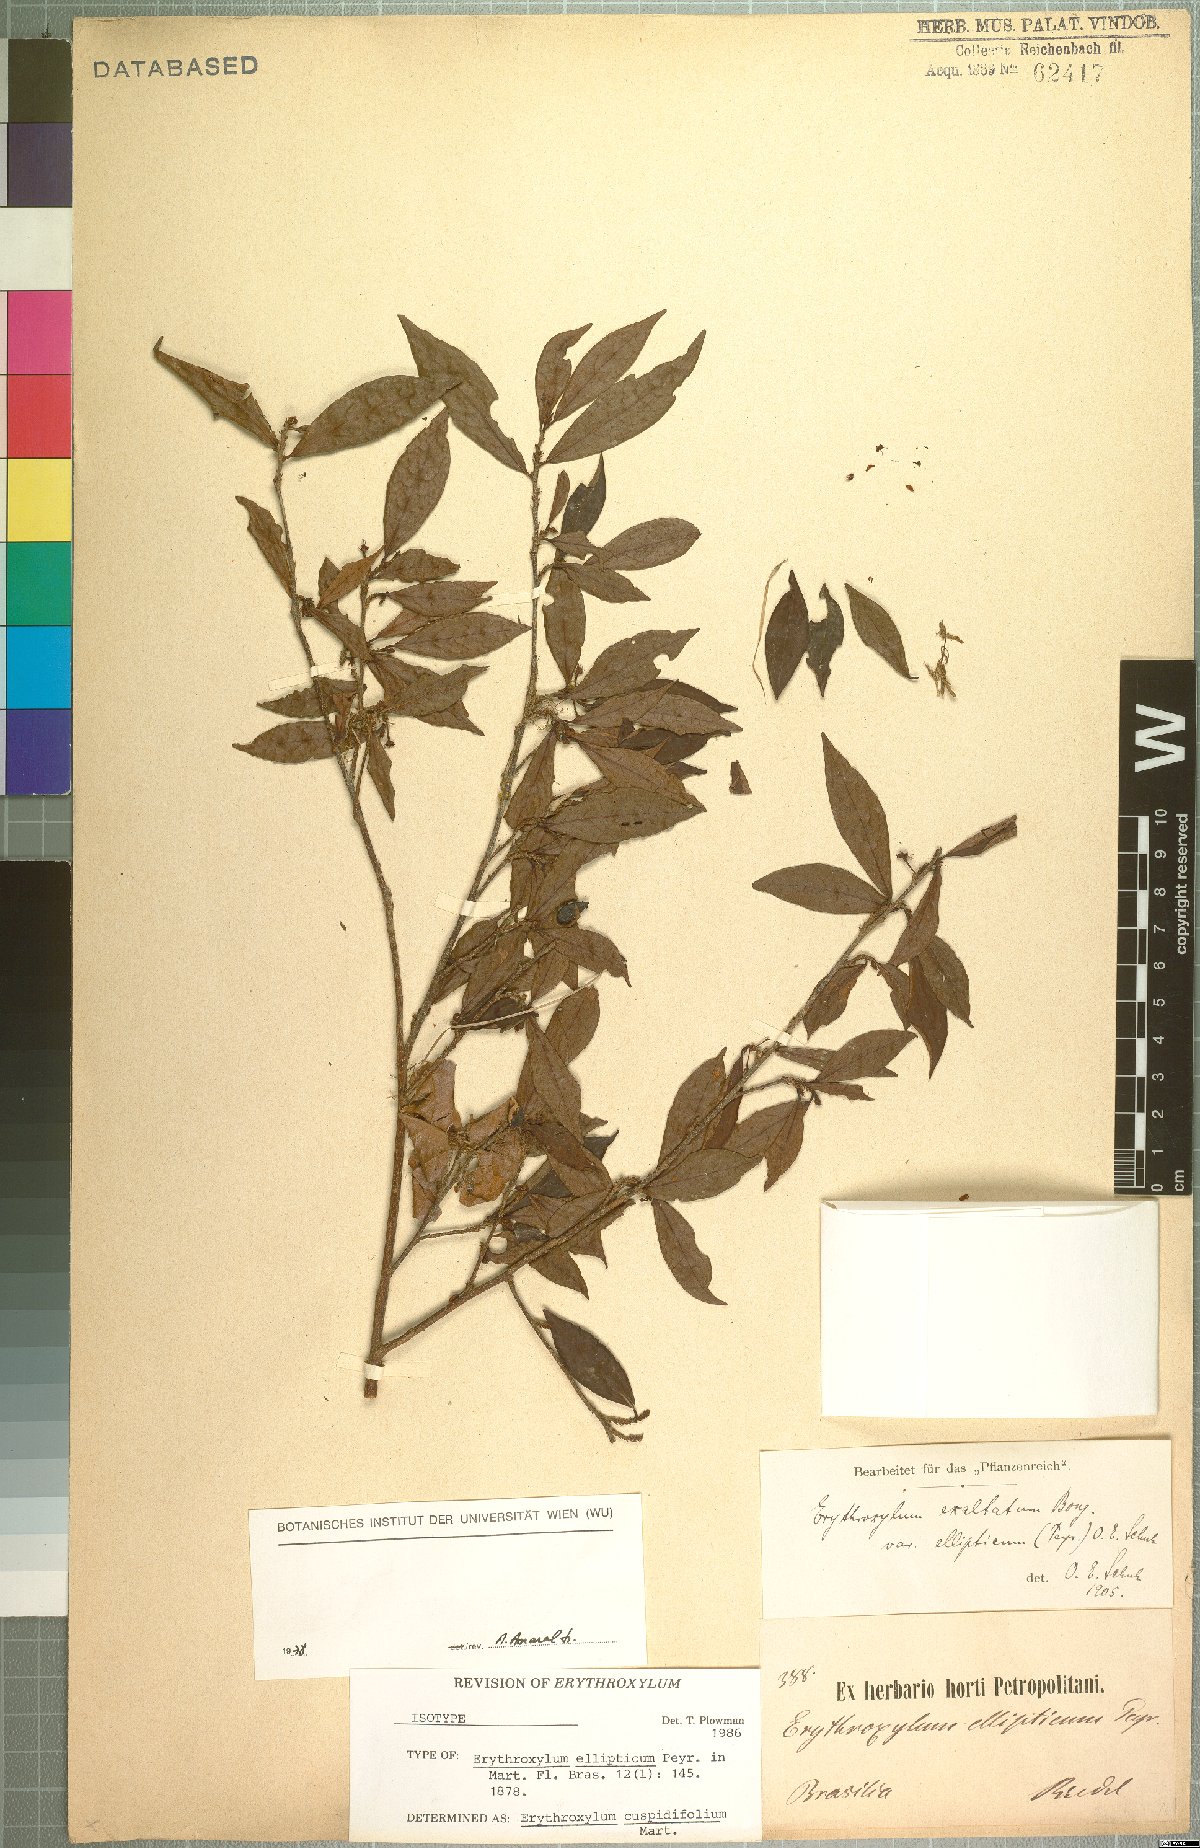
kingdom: Plantae
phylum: Tracheophyta
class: Magnoliopsida
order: Malpighiales
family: Erythroxylaceae
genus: Erythroxylum
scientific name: Erythroxylum cuspidifolium
